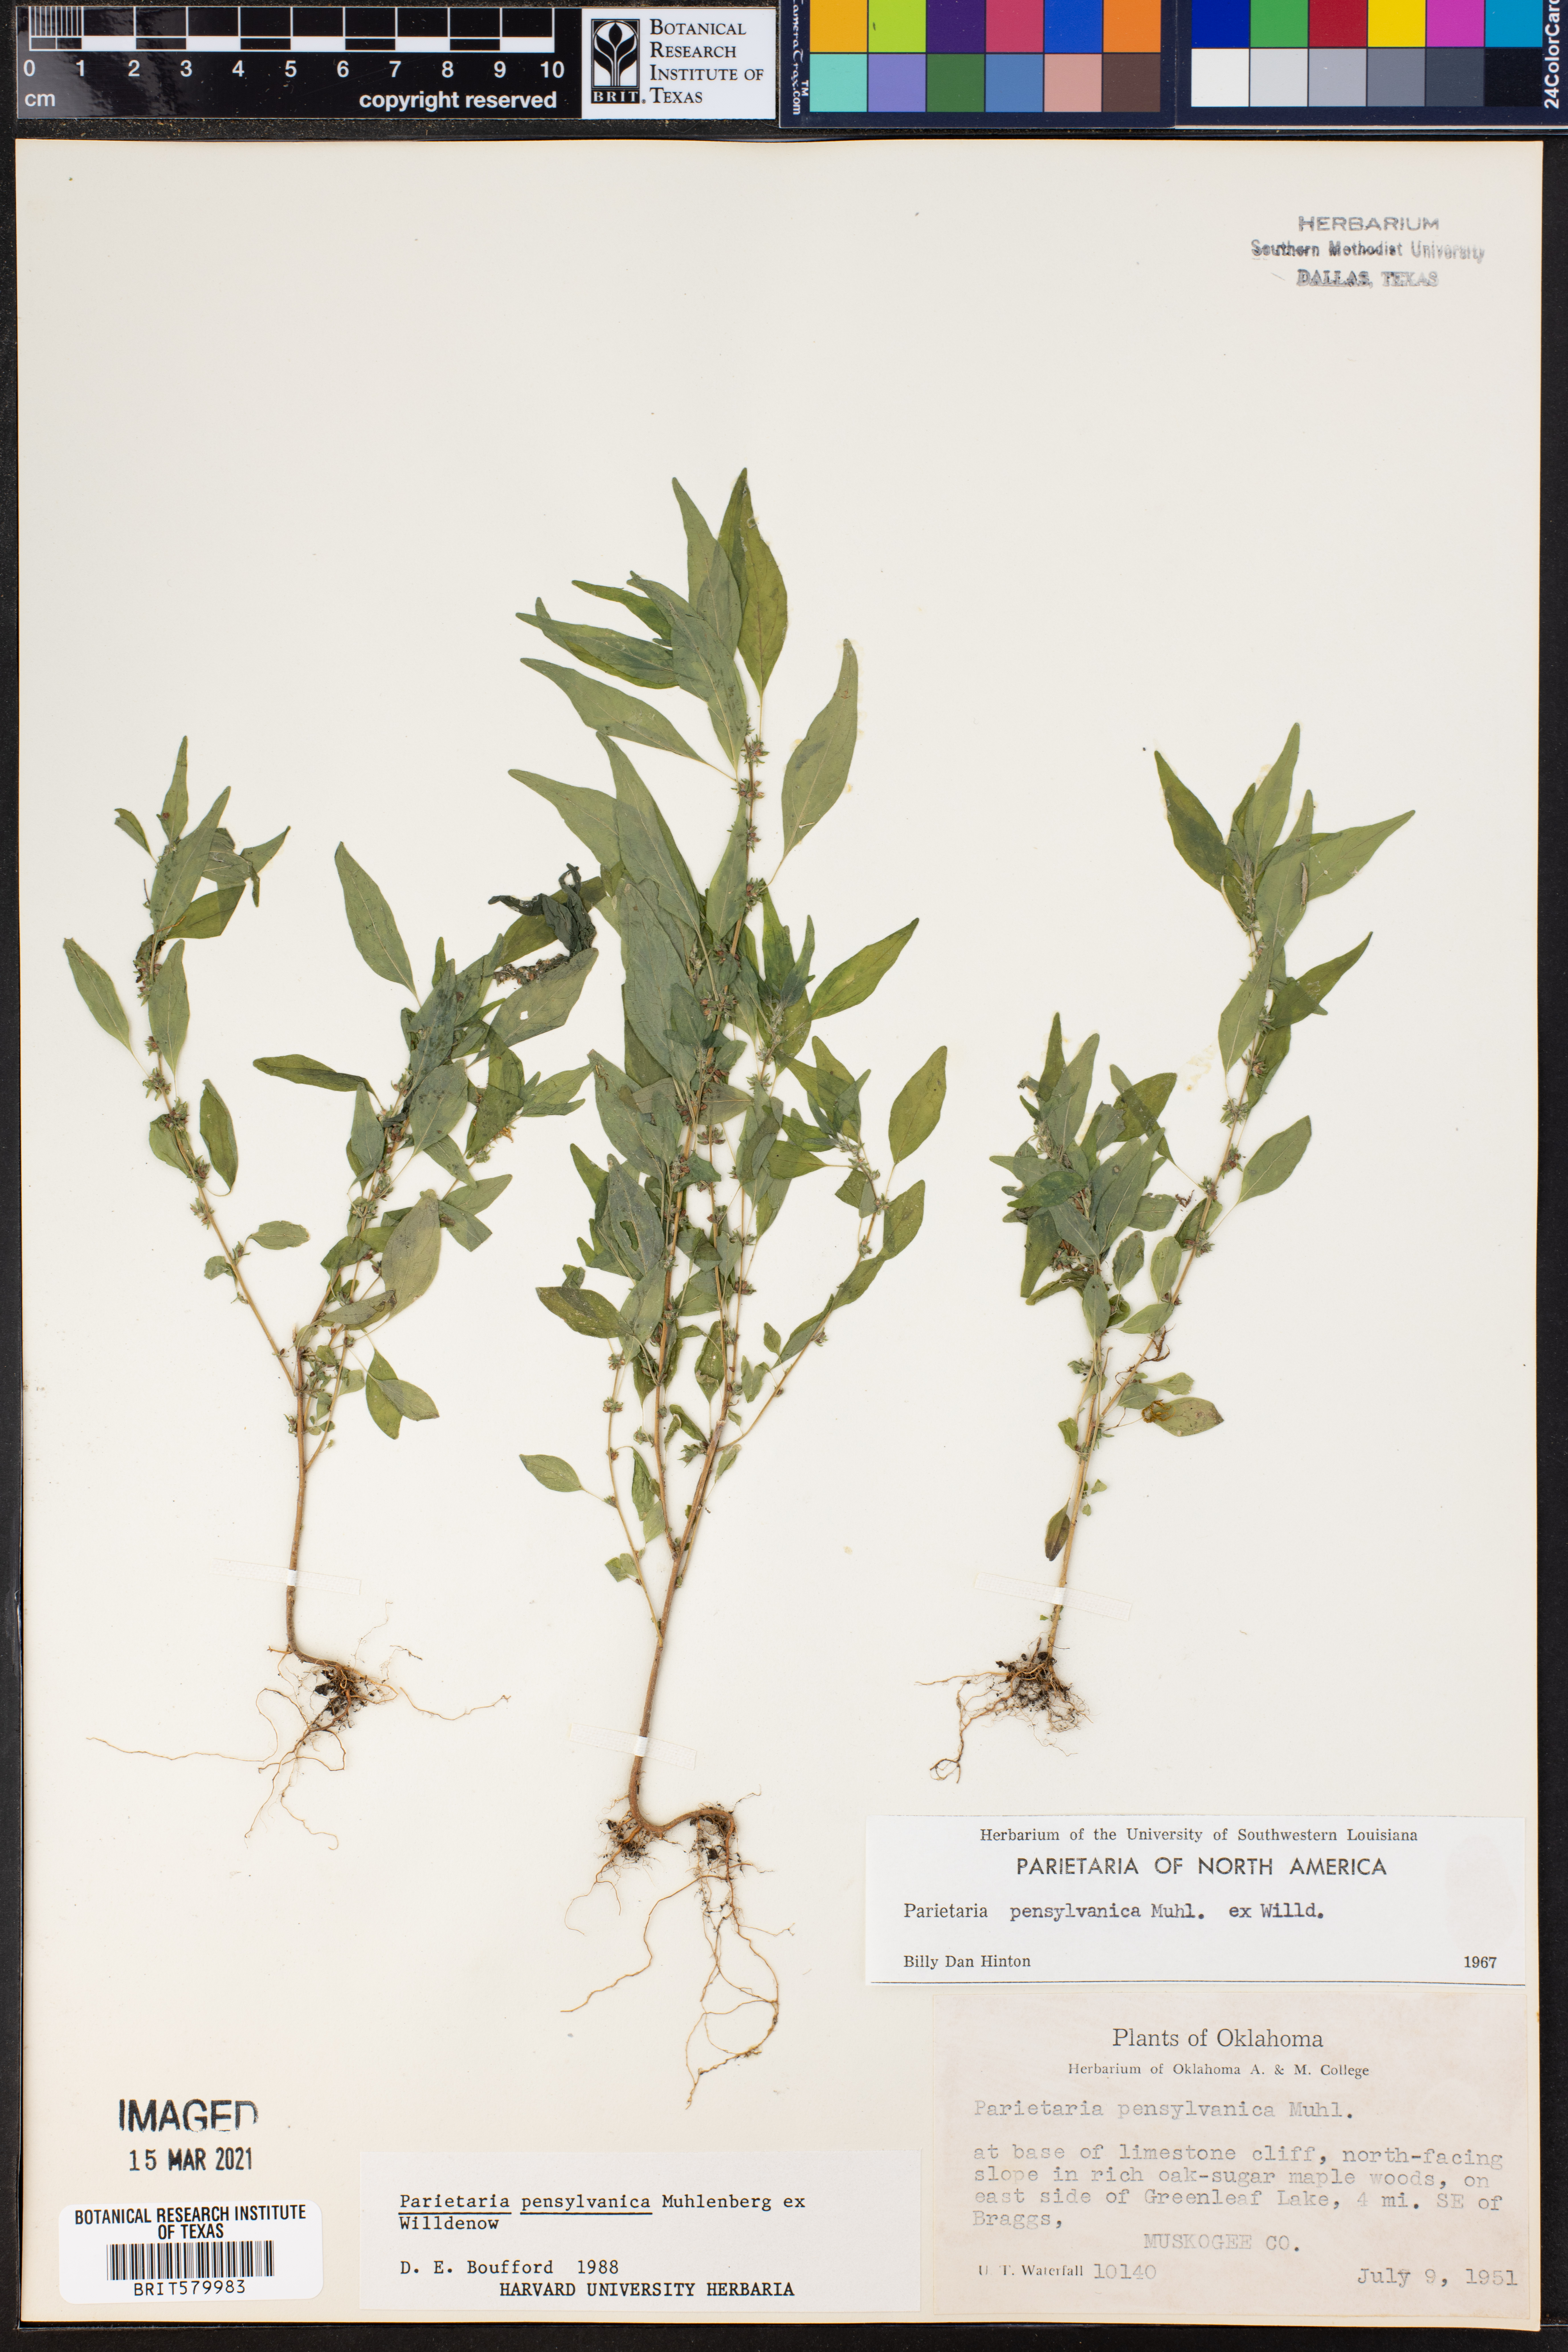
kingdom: Plantae
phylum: Tracheophyta
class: Magnoliopsida
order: Rosales
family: Urticaceae
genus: Parietaria
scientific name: Parietaria pensylvanica
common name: Pennsylvania pellitory
